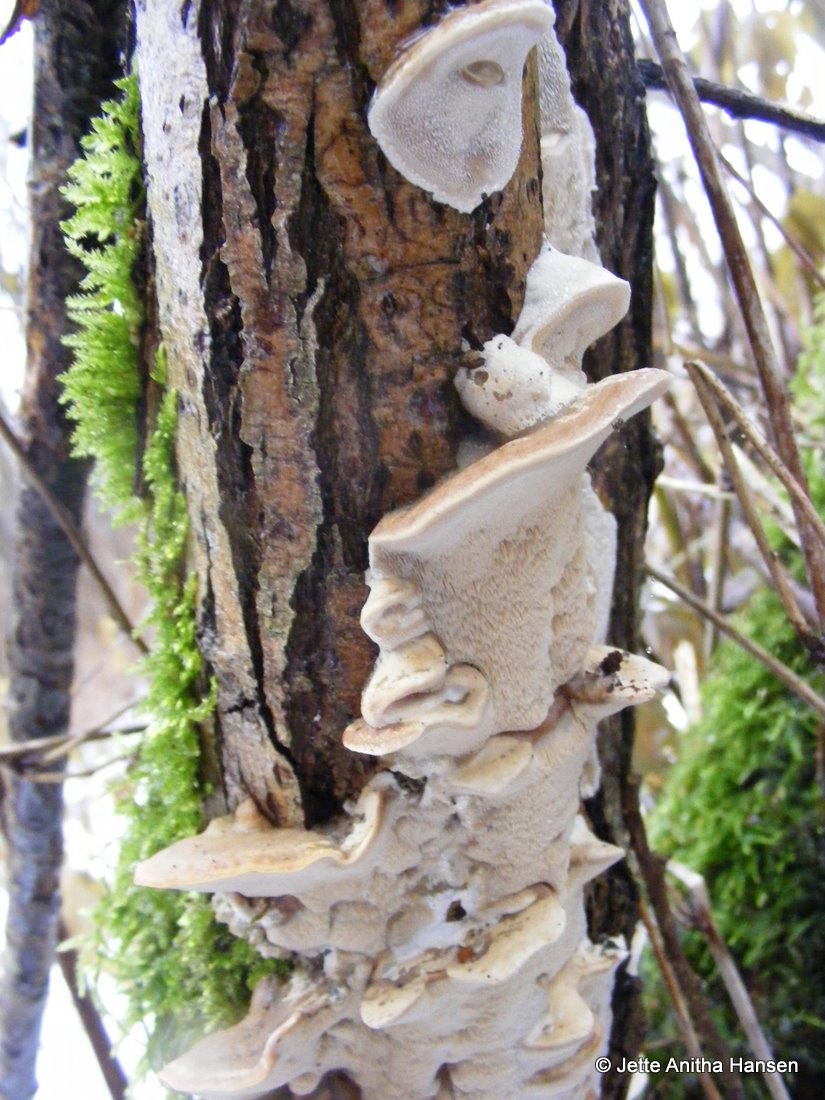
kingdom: Fungi
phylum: Basidiomycota
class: Agaricomycetes
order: Polyporales
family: Phanerochaetaceae
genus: Bjerkandera
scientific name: Bjerkandera fumosa
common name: grågul sodporesvamp
